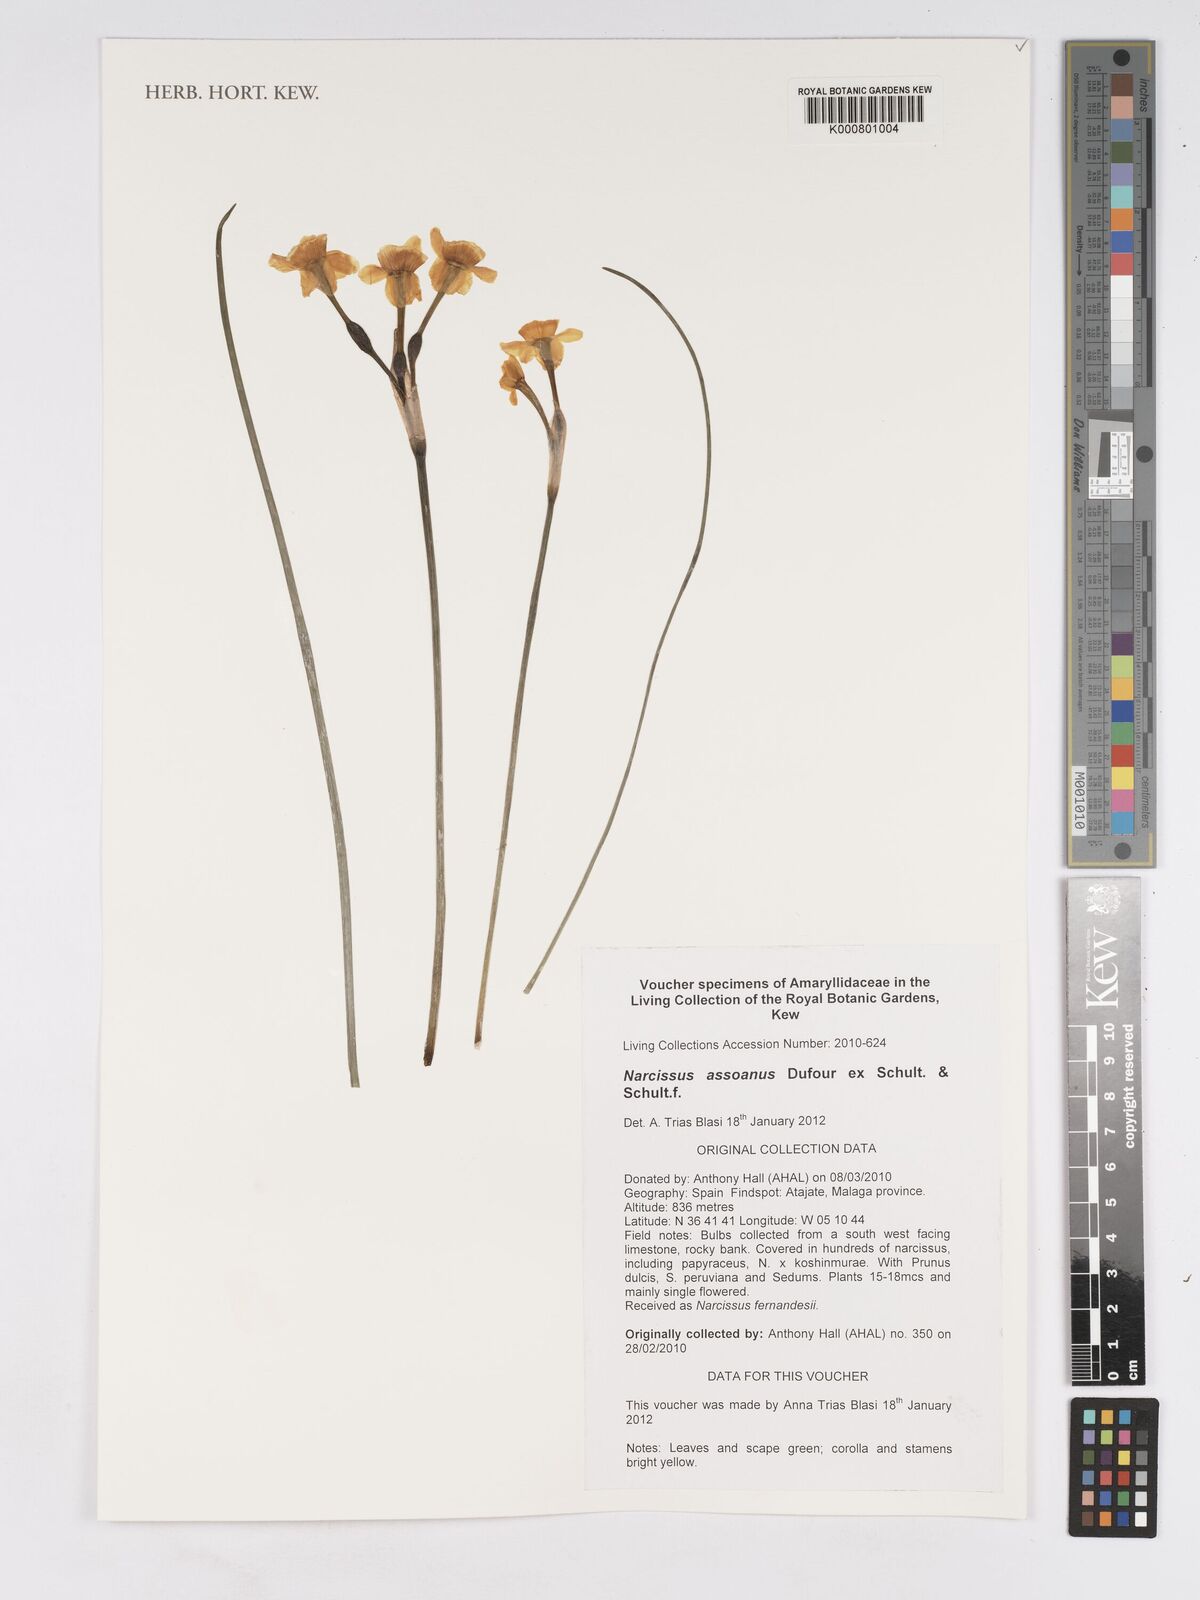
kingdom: Plantae
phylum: Tracheophyta
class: Liliopsida
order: Asparagales
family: Amaryllidaceae
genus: Narcissus
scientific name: Narcissus assoanus
